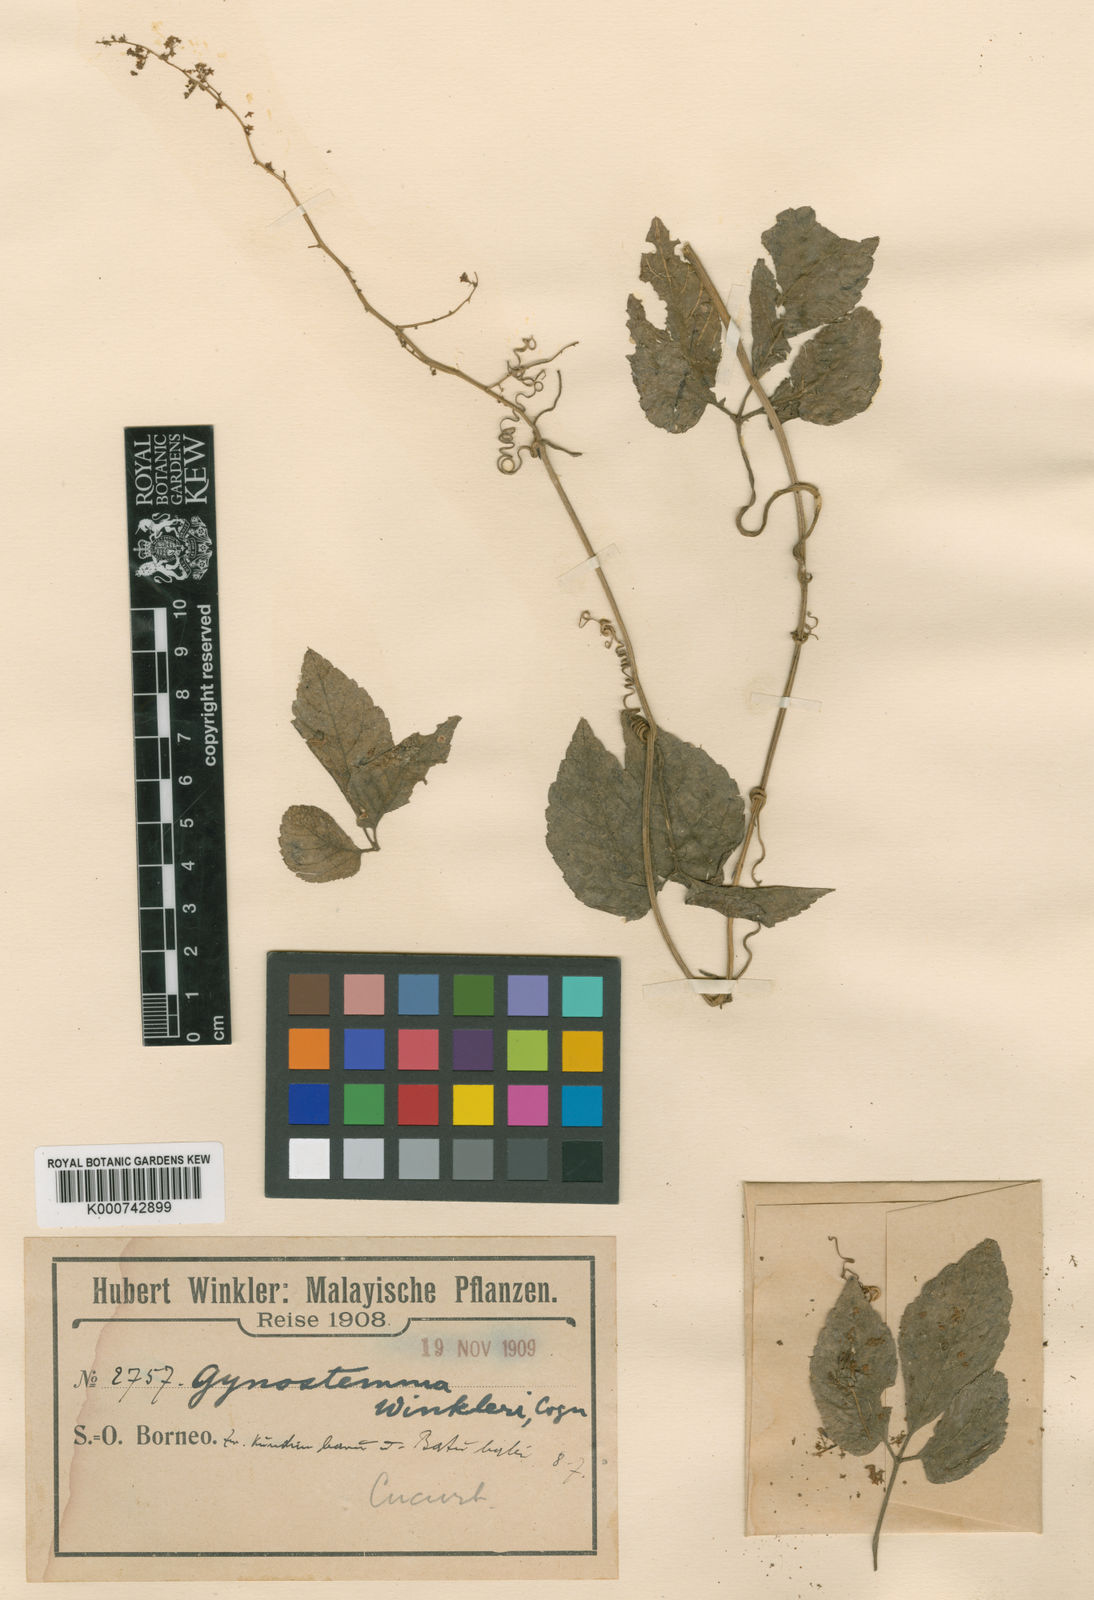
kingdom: Plantae
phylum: Tracheophyta
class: Magnoliopsida
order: Cucurbitales
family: Cucurbitaceae
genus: Gynostemma
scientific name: Gynostemma pentaphyllum
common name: Gynostemma
